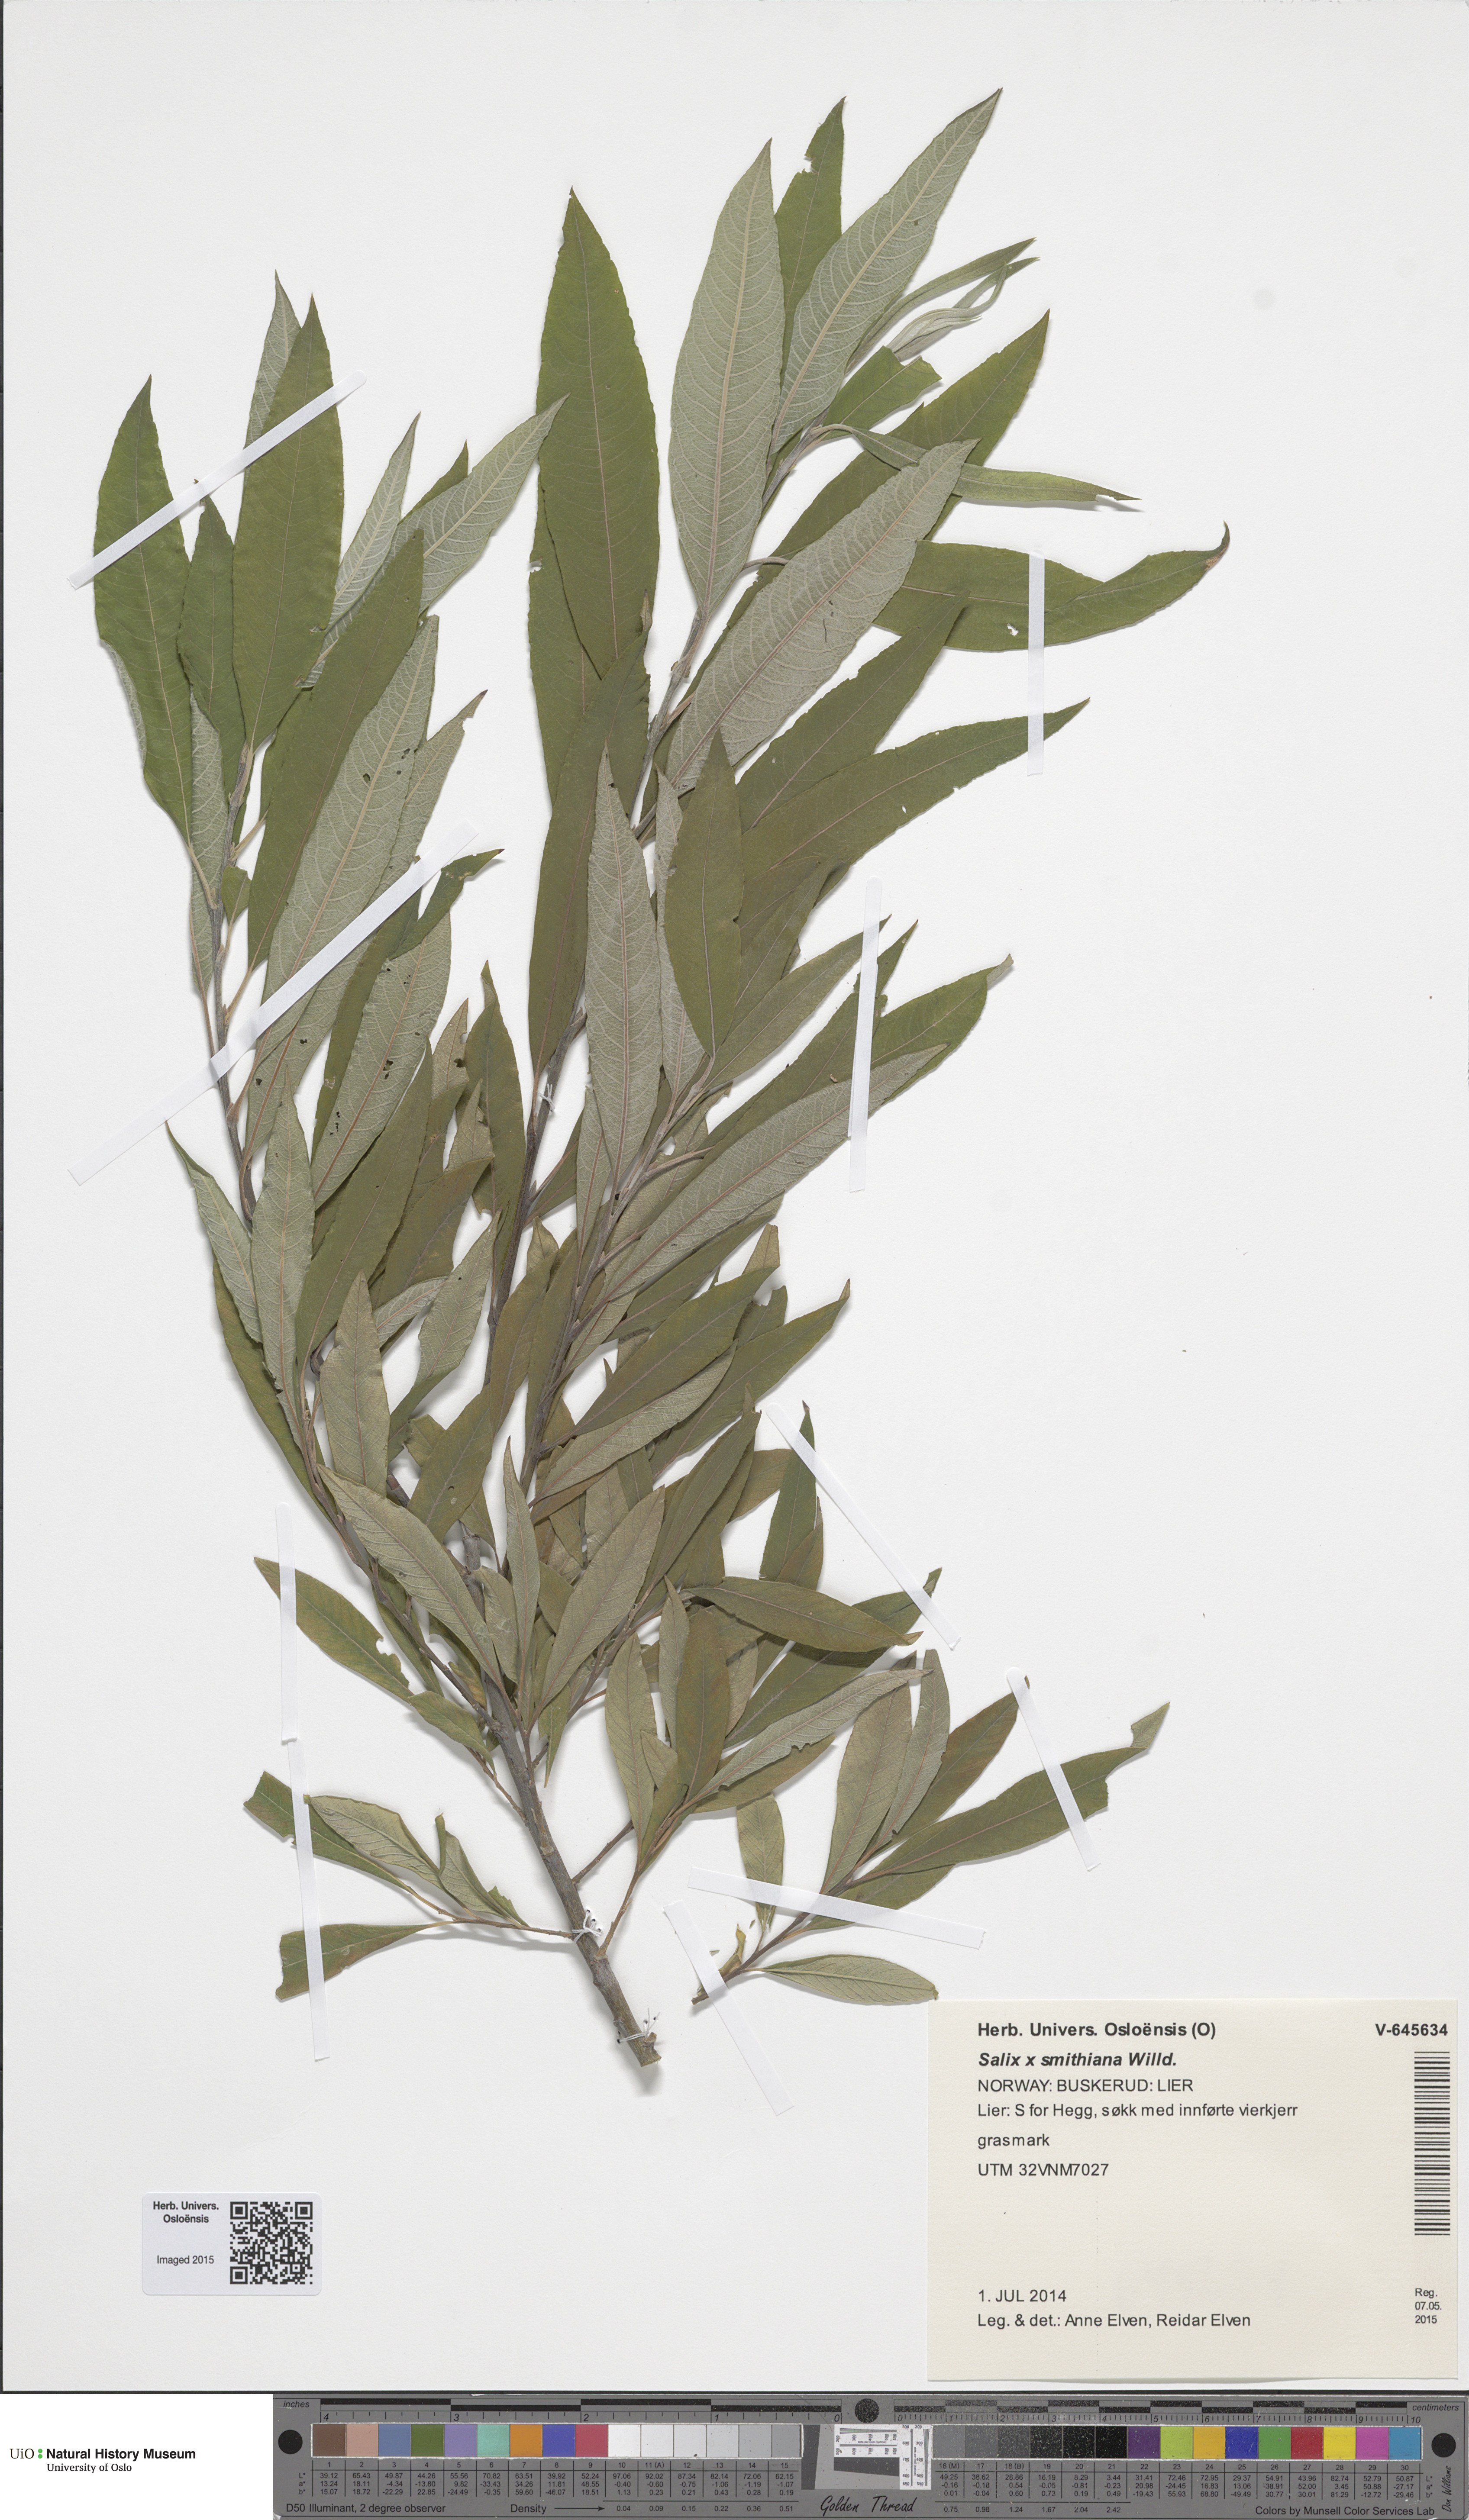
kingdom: Plantae
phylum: Tracheophyta
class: Magnoliopsida
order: Malpighiales
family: Salicaceae
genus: Salix
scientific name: Salix smithiana
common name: Silky-leaved osier
